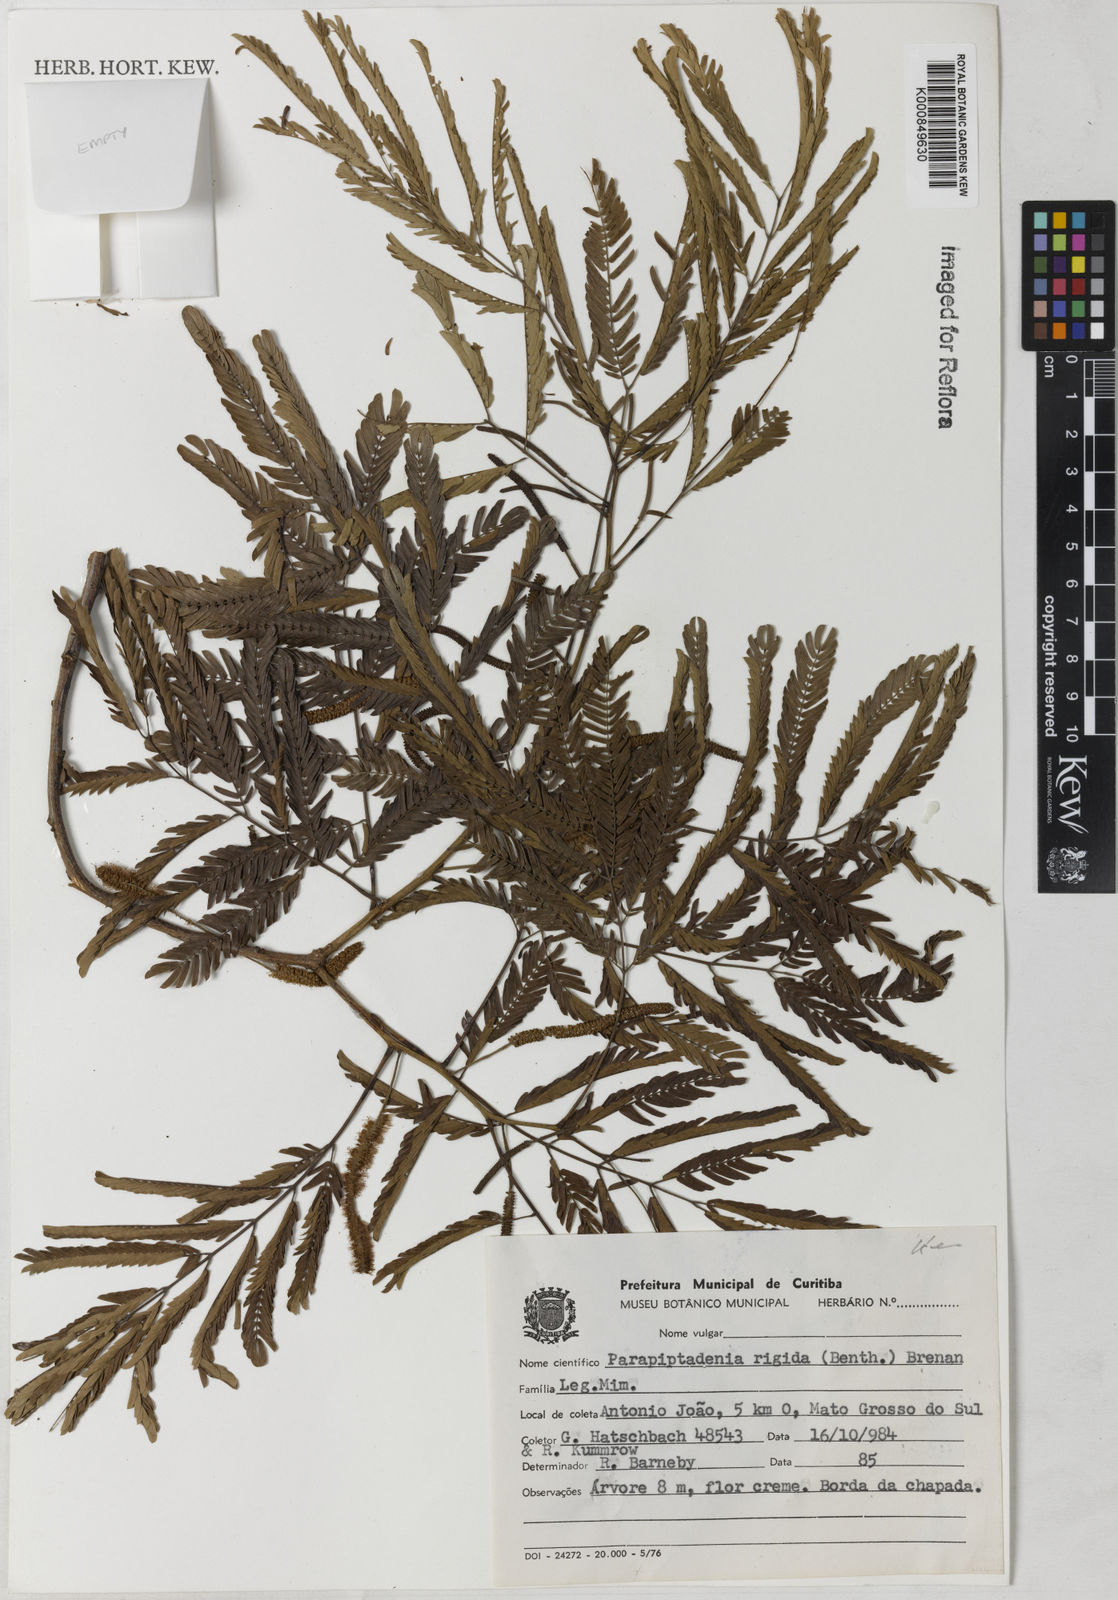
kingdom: Plantae
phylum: Tracheophyta
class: Magnoliopsida
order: Fabales
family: Fabaceae
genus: Parapiptadenia
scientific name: Parapiptadenia rigida
